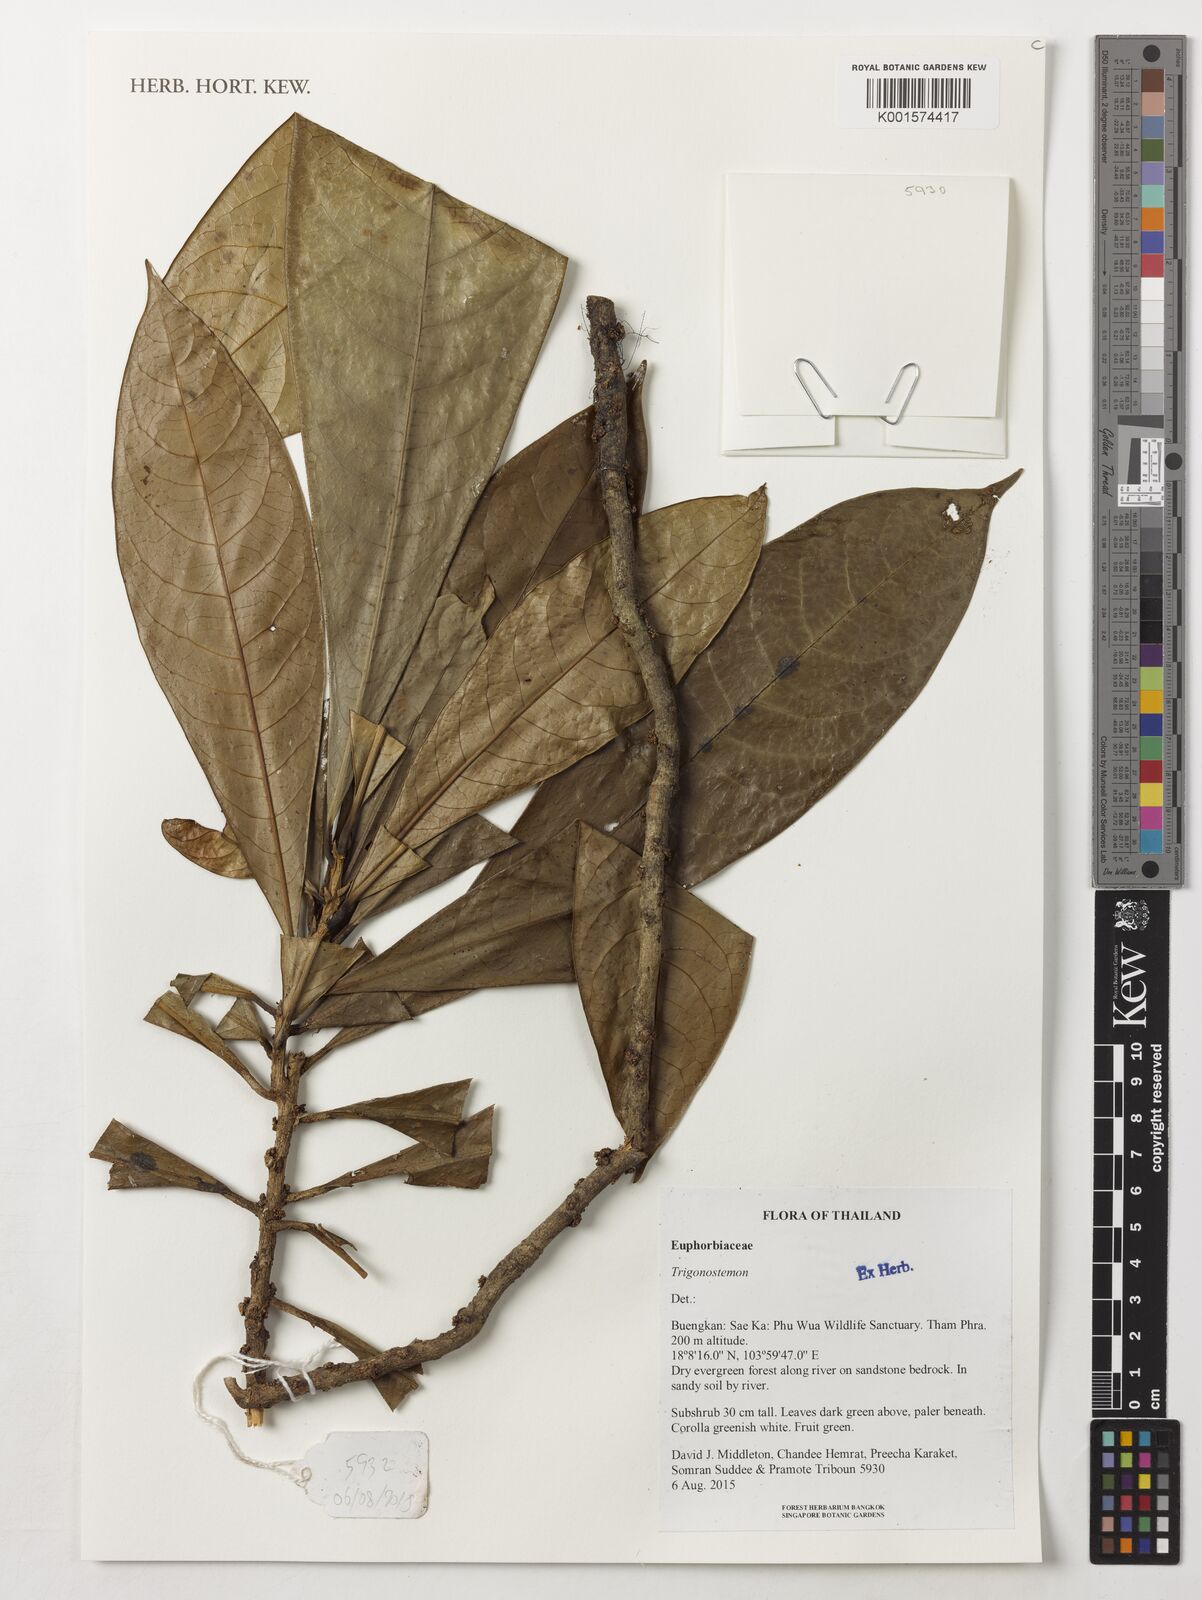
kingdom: Plantae
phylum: Tracheophyta
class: Magnoliopsida
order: Malpighiales
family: Euphorbiaceae
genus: Trigonostemon
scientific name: Trigonostemon
